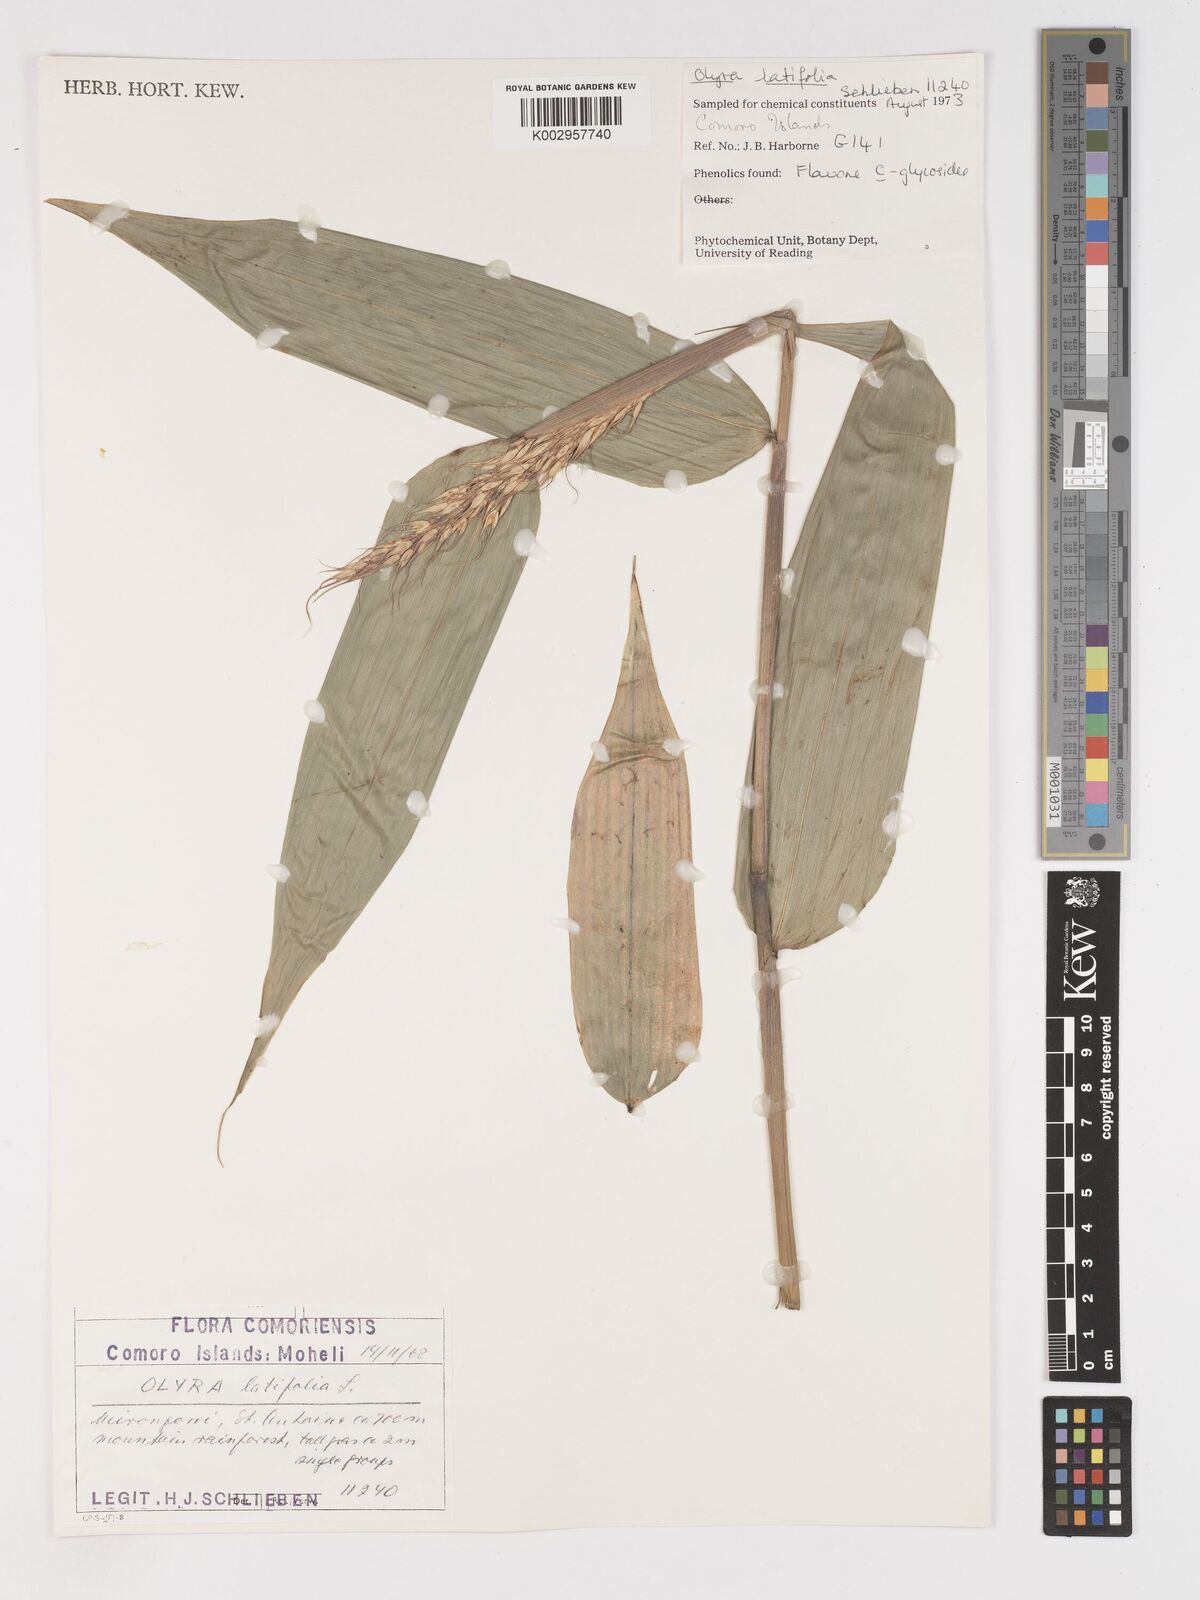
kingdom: Plantae
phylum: Tracheophyta
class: Liliopsida
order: Poales
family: Poaceae
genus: Olyra
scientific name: Olyra latifolia
